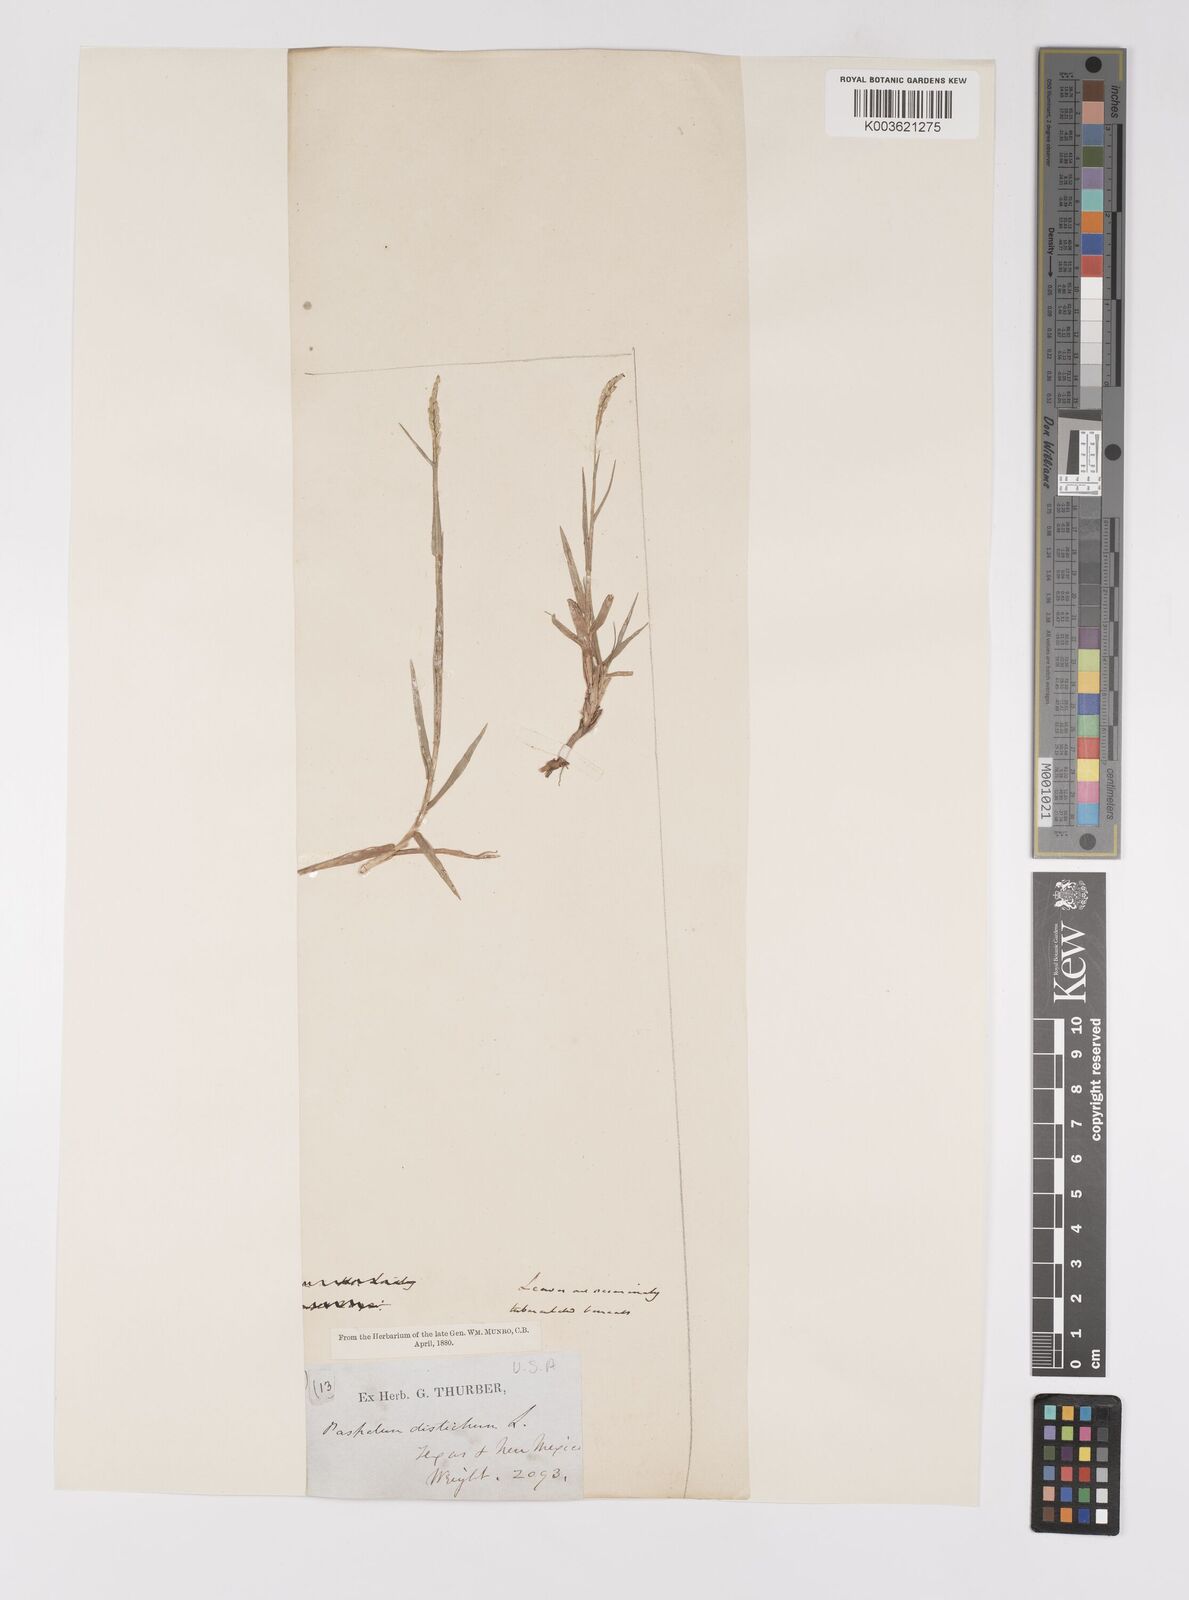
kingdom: Plantae
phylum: Tracheophyta
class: Liliopsida
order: Poales
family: Poaceae
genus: Paspalum
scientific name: Paspalum distichum
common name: Knotgrass
